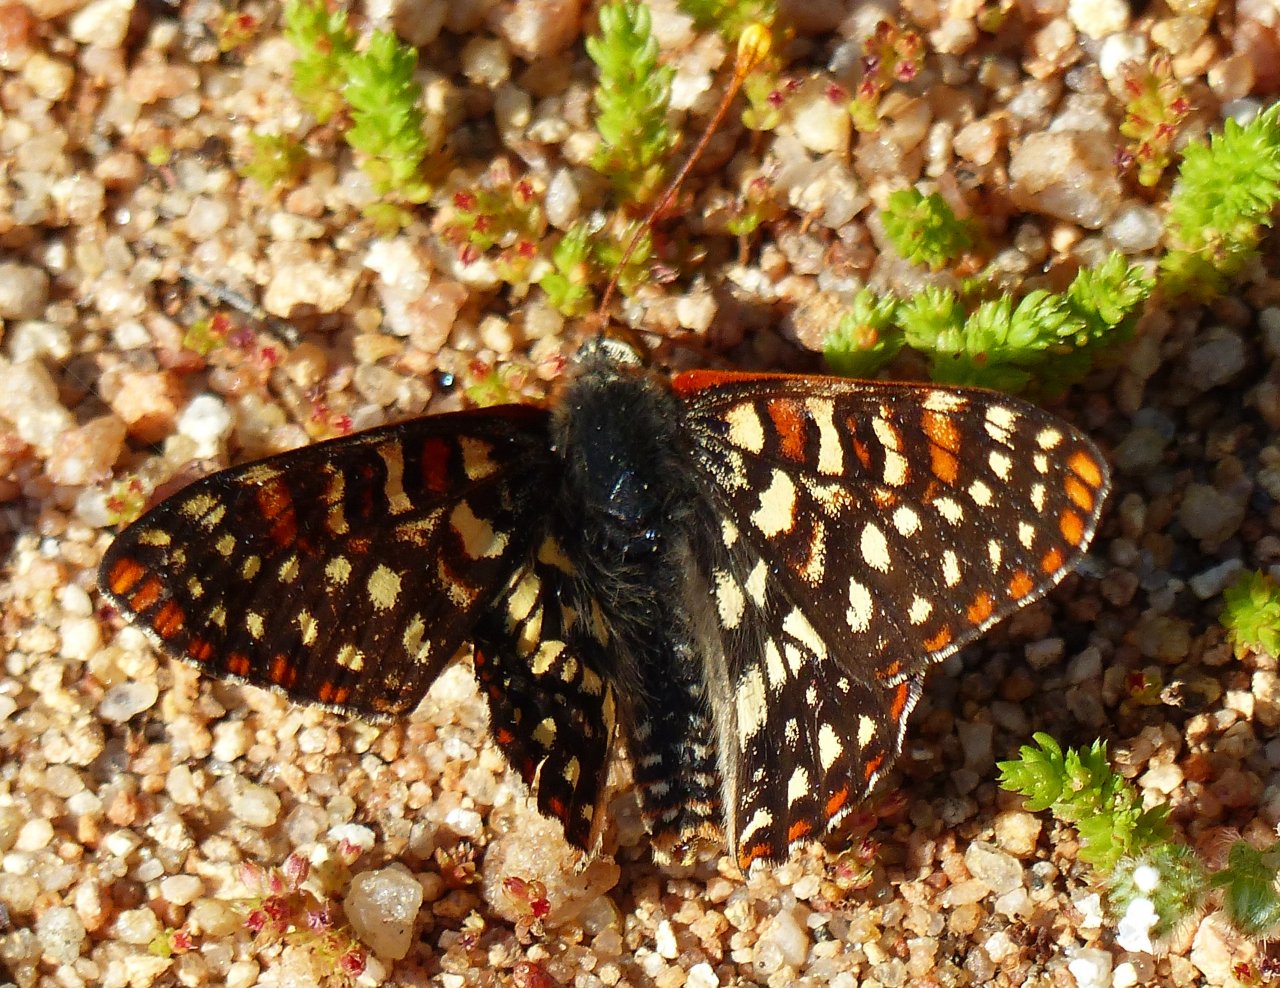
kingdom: Animalia
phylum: Arthropoda
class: Insecta
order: Lepidoptera
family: Nymphalidae
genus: Occidryas
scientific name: Occidryas chalcedona
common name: Chalcedon Checkerspot
